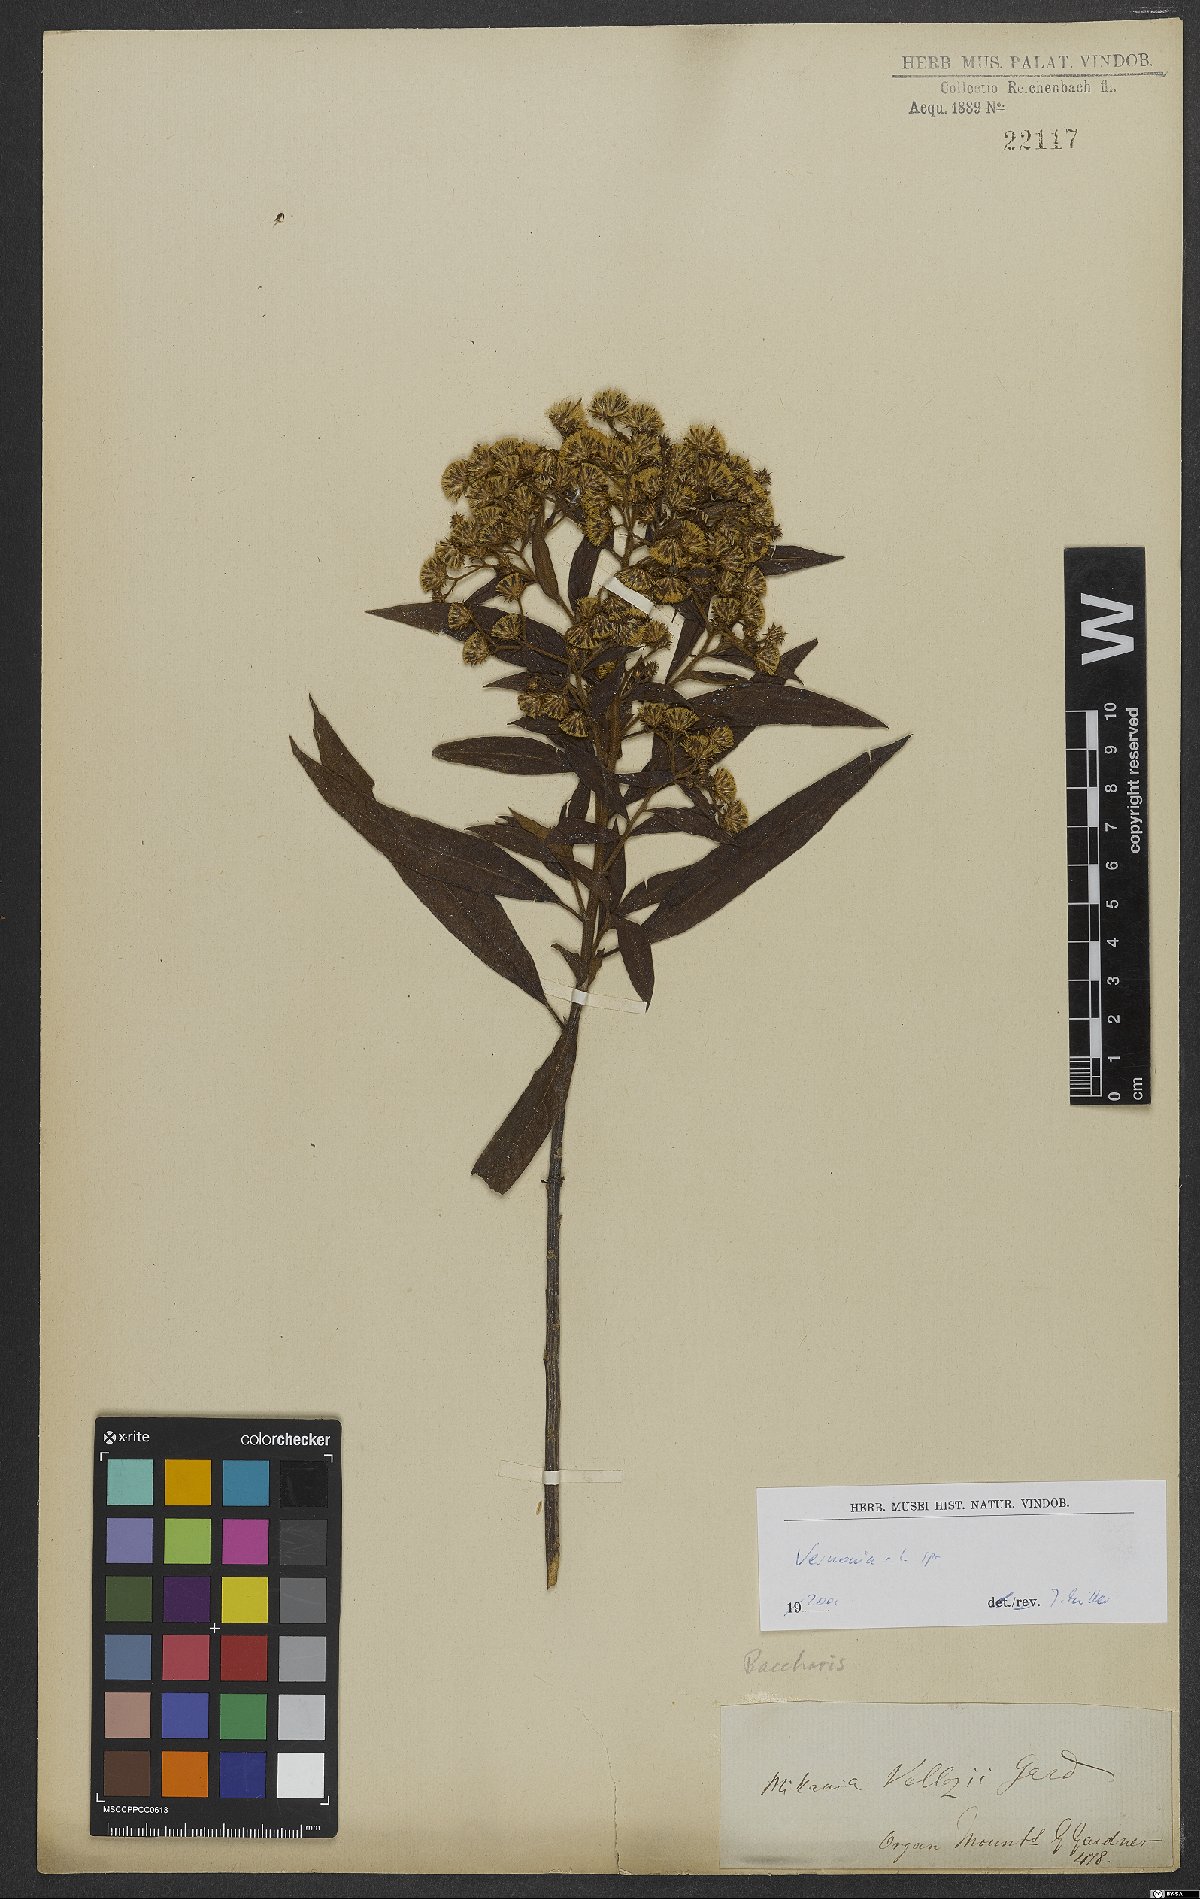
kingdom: Plantae
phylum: Tracheophyta
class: Magnoliopsida
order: Asterales
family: Asteraceae
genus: Vernonia
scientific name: Vernonia
